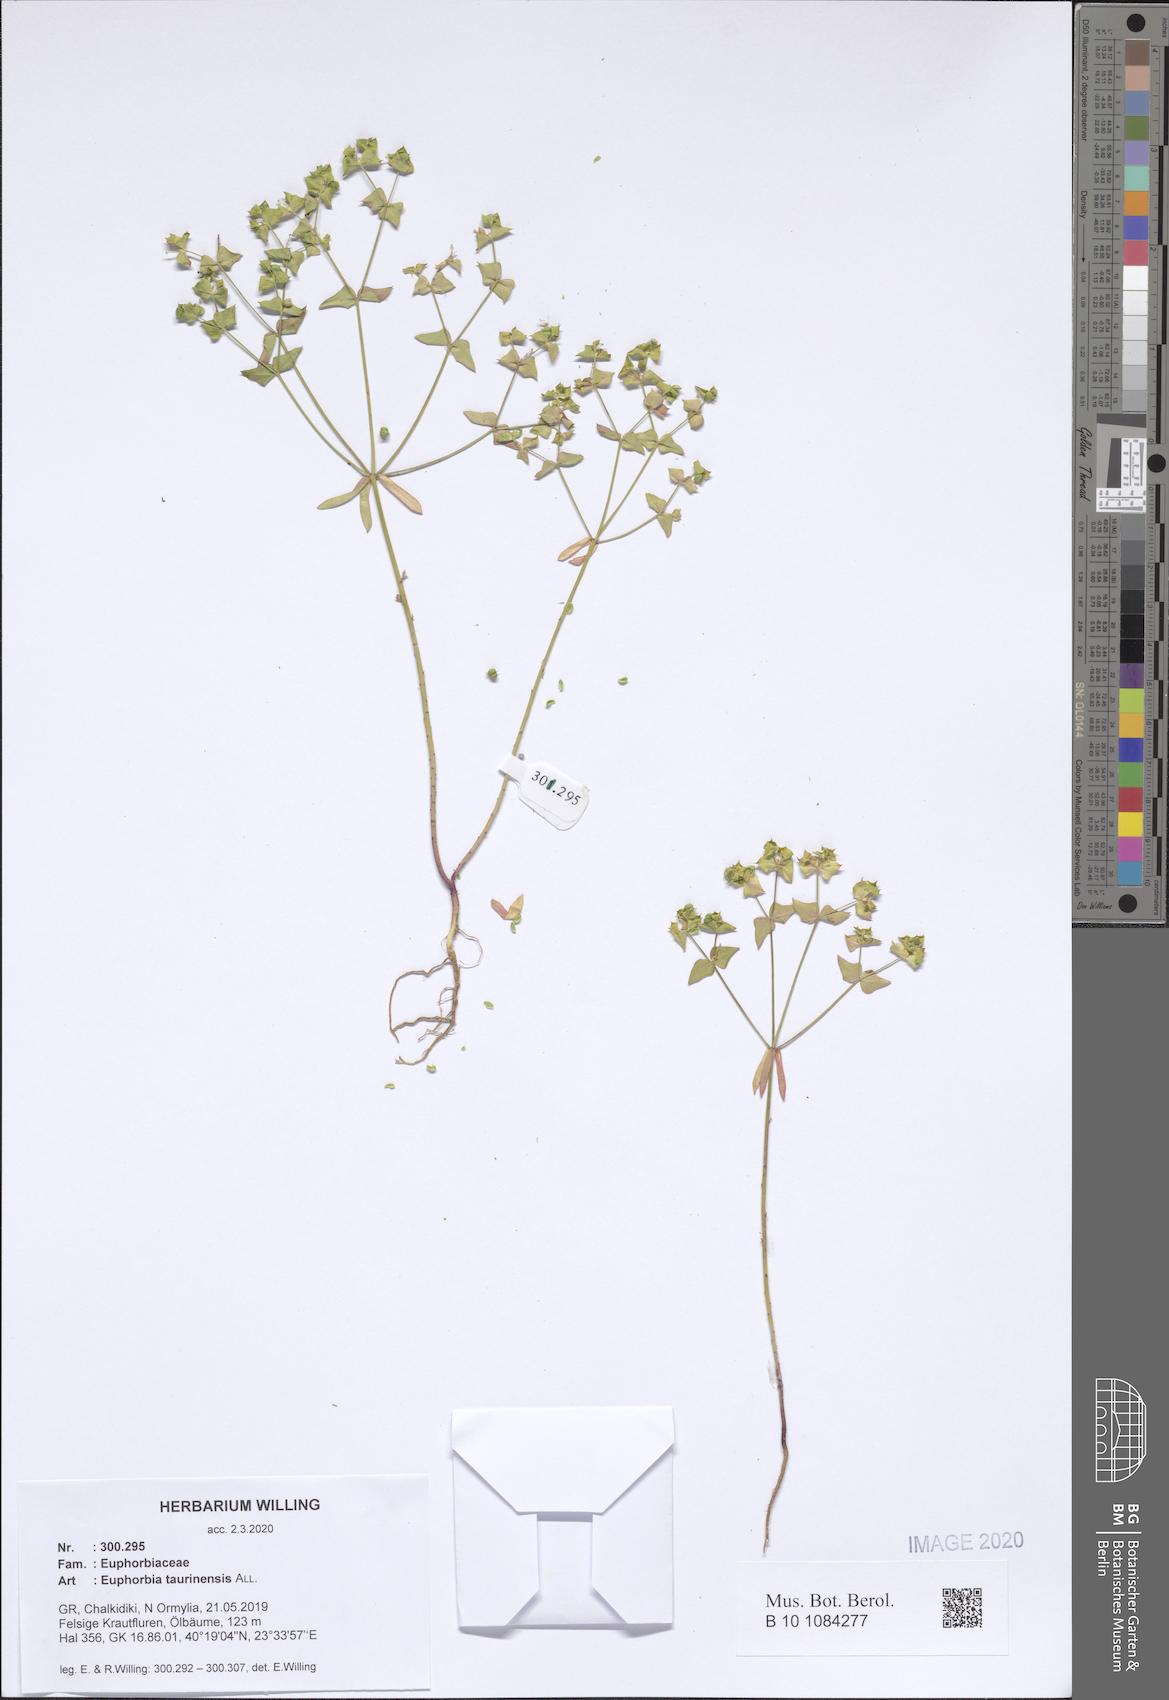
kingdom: Plantae
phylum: Tracheophyta
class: Magnoliopsida
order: Malpighiales
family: Euphorbiaceae
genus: Euphorbia
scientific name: Euphorbia taurinensis
